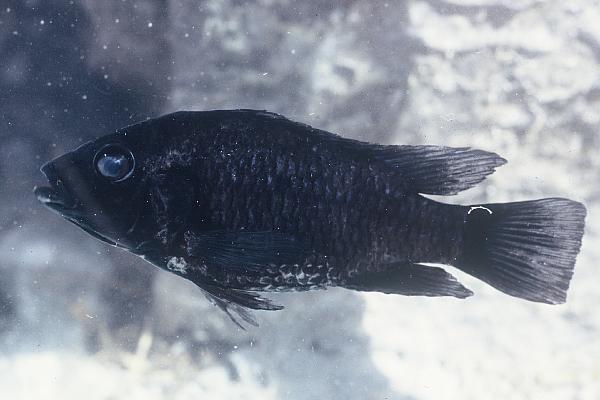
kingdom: Animalia
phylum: Chordata
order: Perciformes
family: Cichlidae
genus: Tilapia
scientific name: Tilapia guinasana
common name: Otjikoto tilapia
